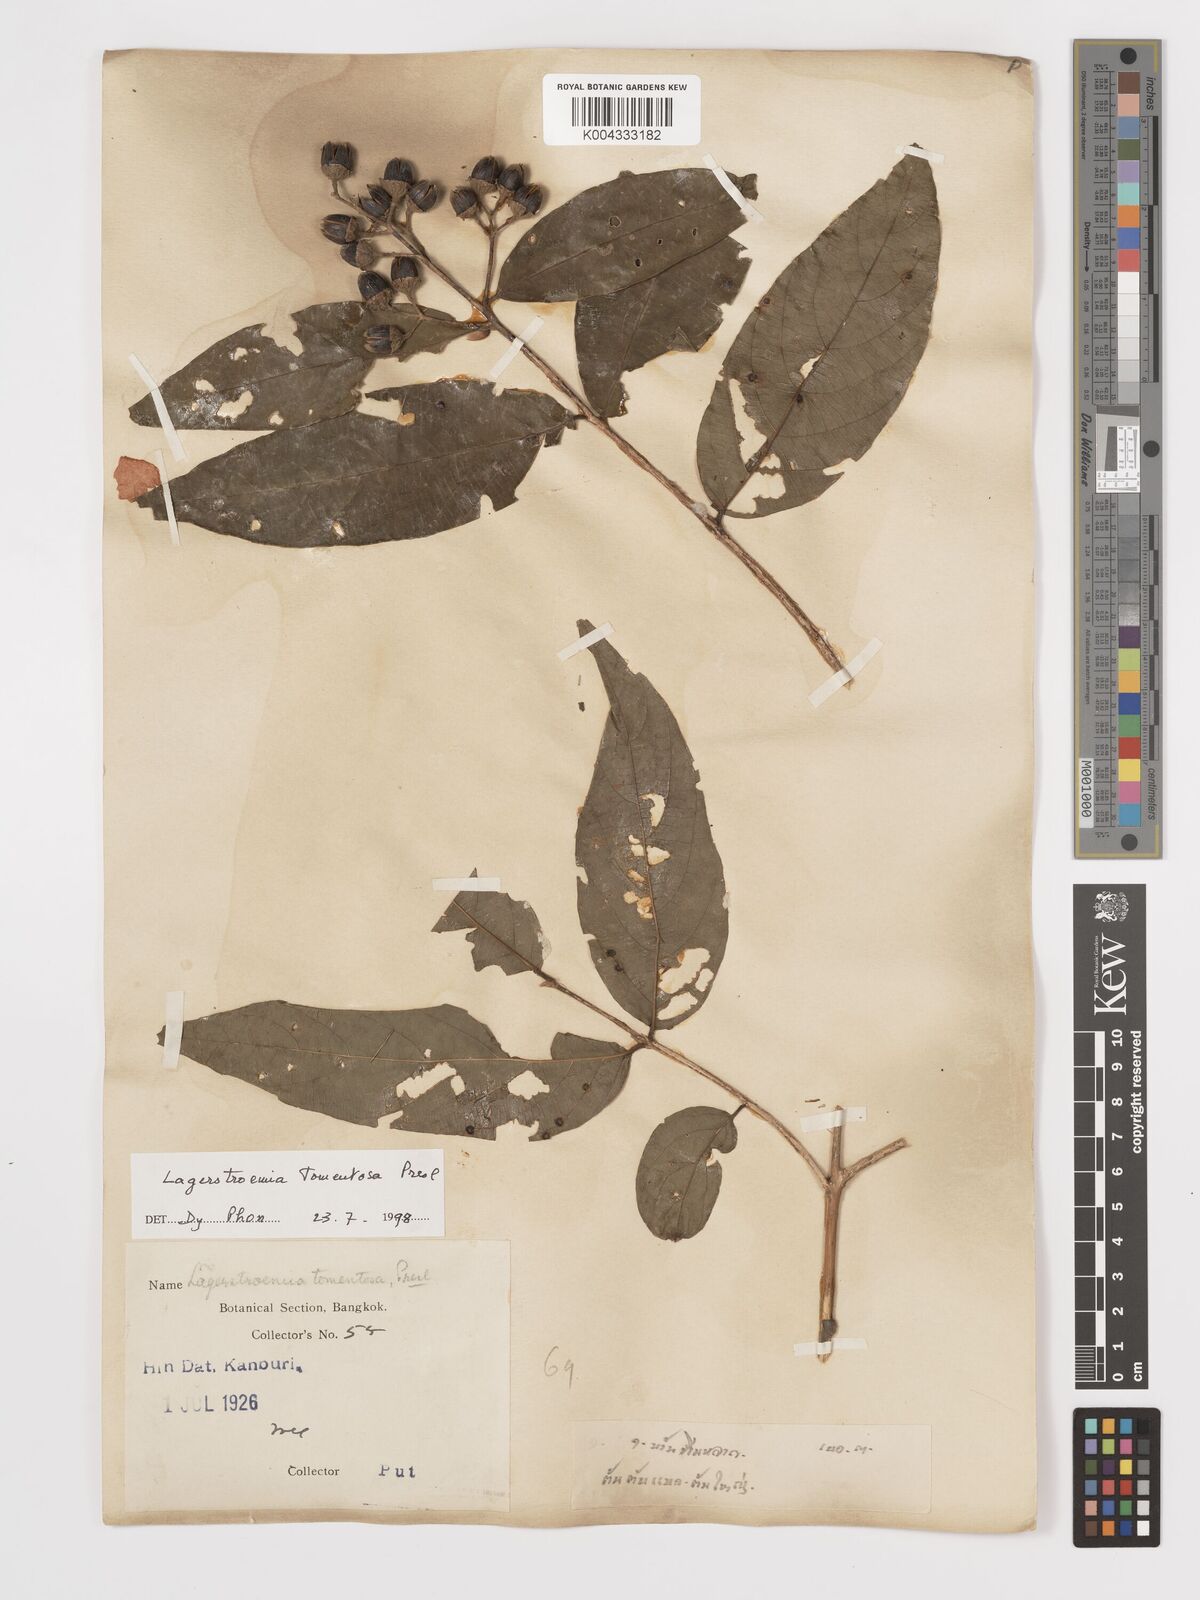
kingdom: Plantae
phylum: Tracheophyta
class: Magnoliopsida
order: Myrtales
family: Lythraceae
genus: Lagerstroemia
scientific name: Lagerstroemia tomentosa
